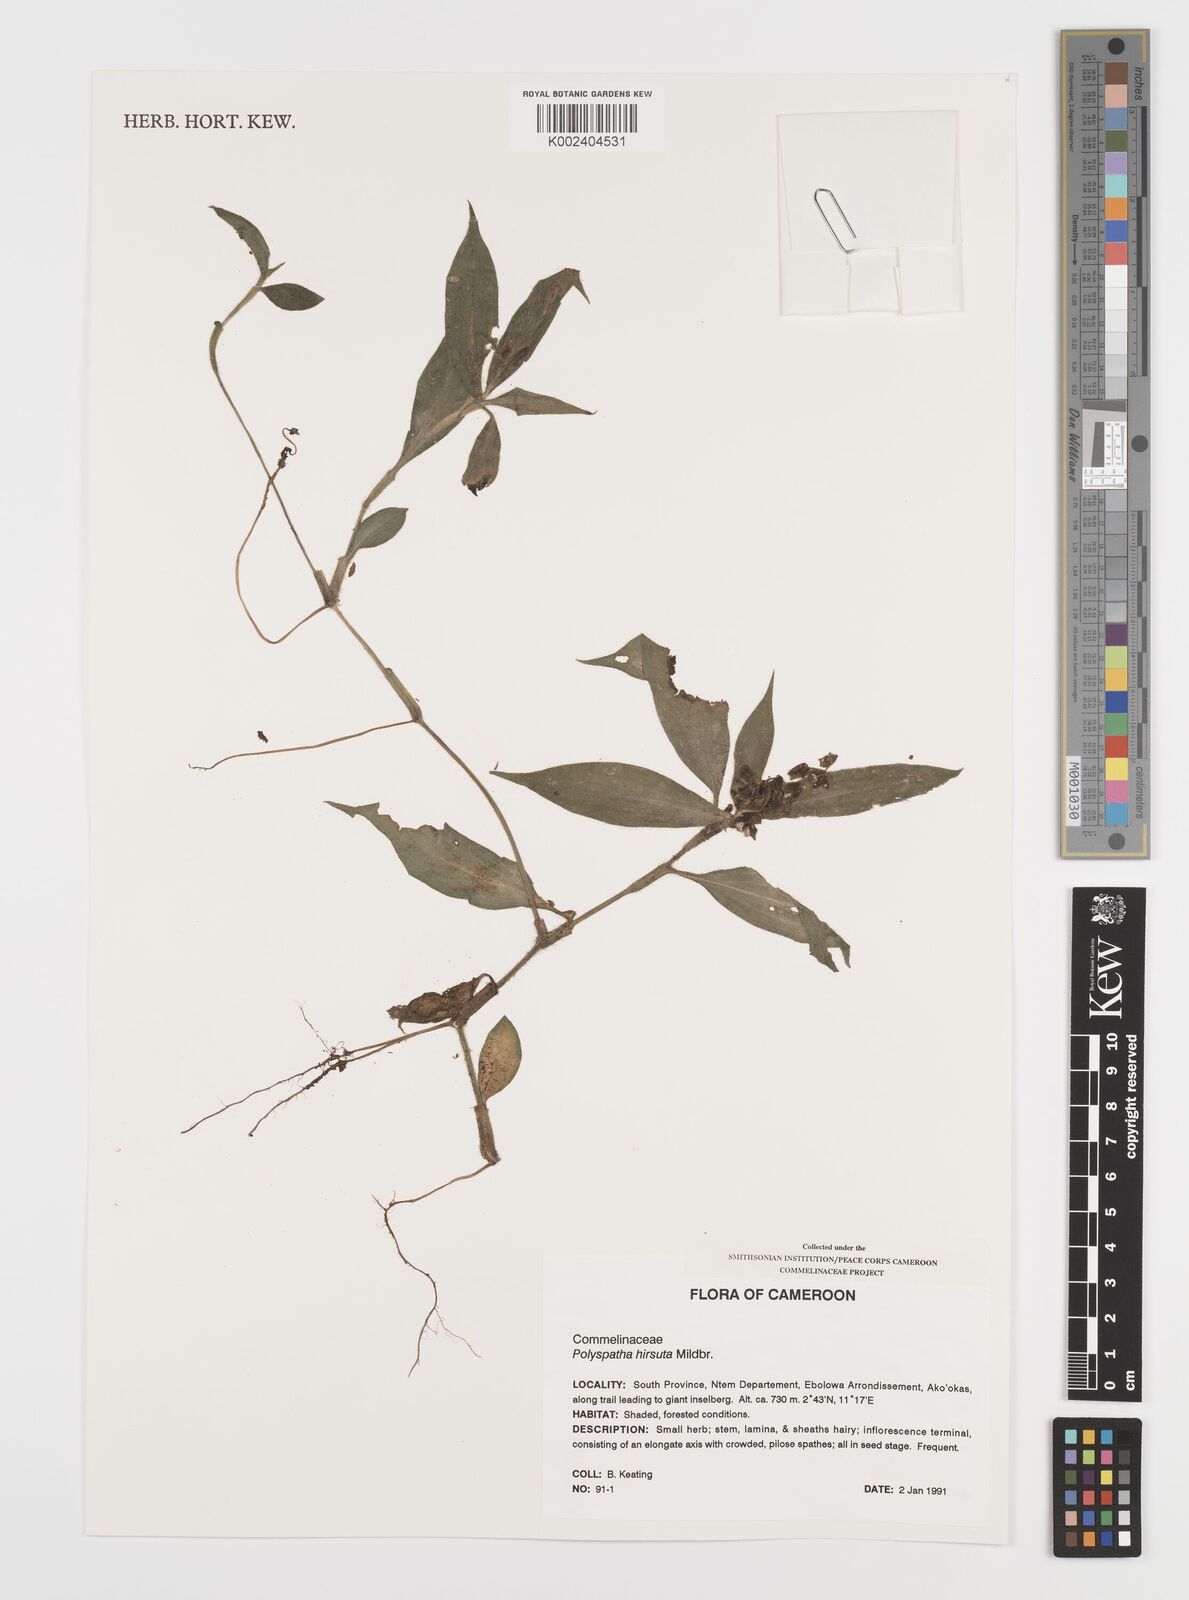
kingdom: Plantae
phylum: Tracheophyta
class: Liliopsida
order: Commelinales
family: Commelinaceae
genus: Polyspatha
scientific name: Polyspatha hirsuta
